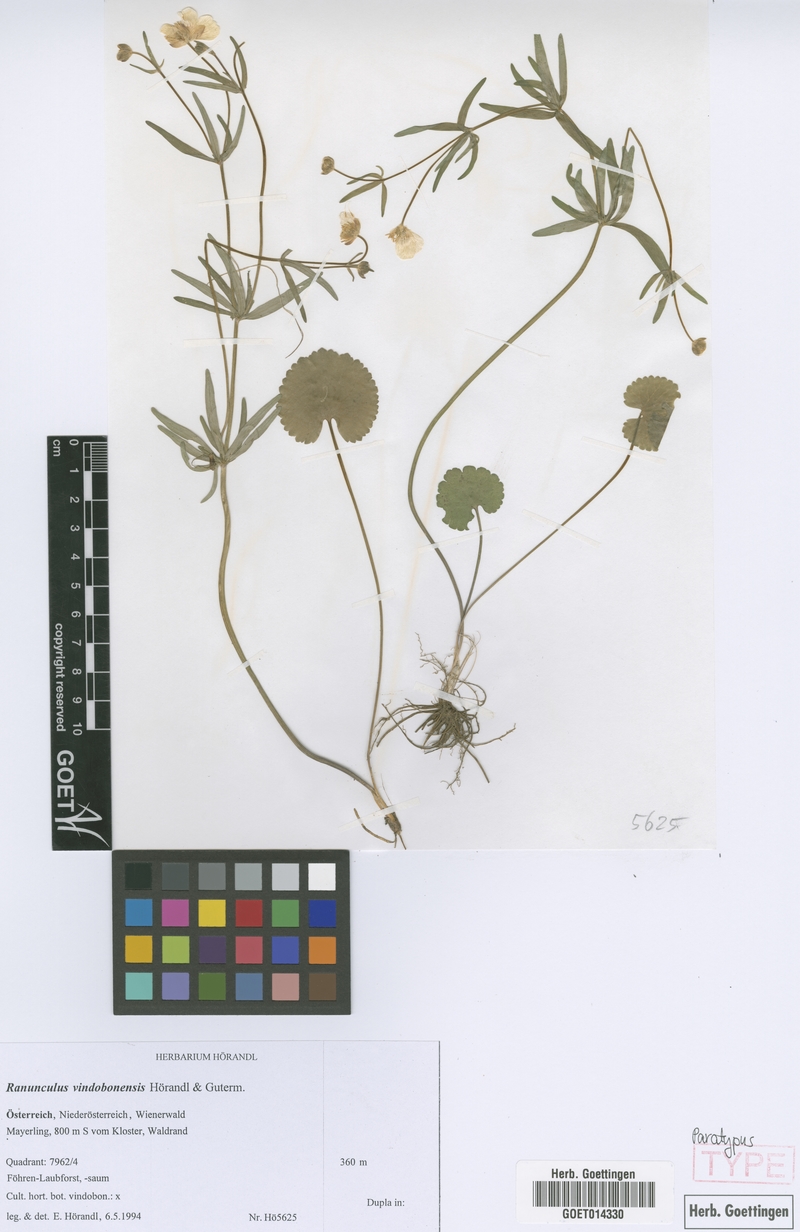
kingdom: Plantae
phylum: Tracheophyta
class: Magnoliopsida
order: Ranunculales
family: Ranunculaceae
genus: Ranunculus
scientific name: Ranunculus vindobonensis
